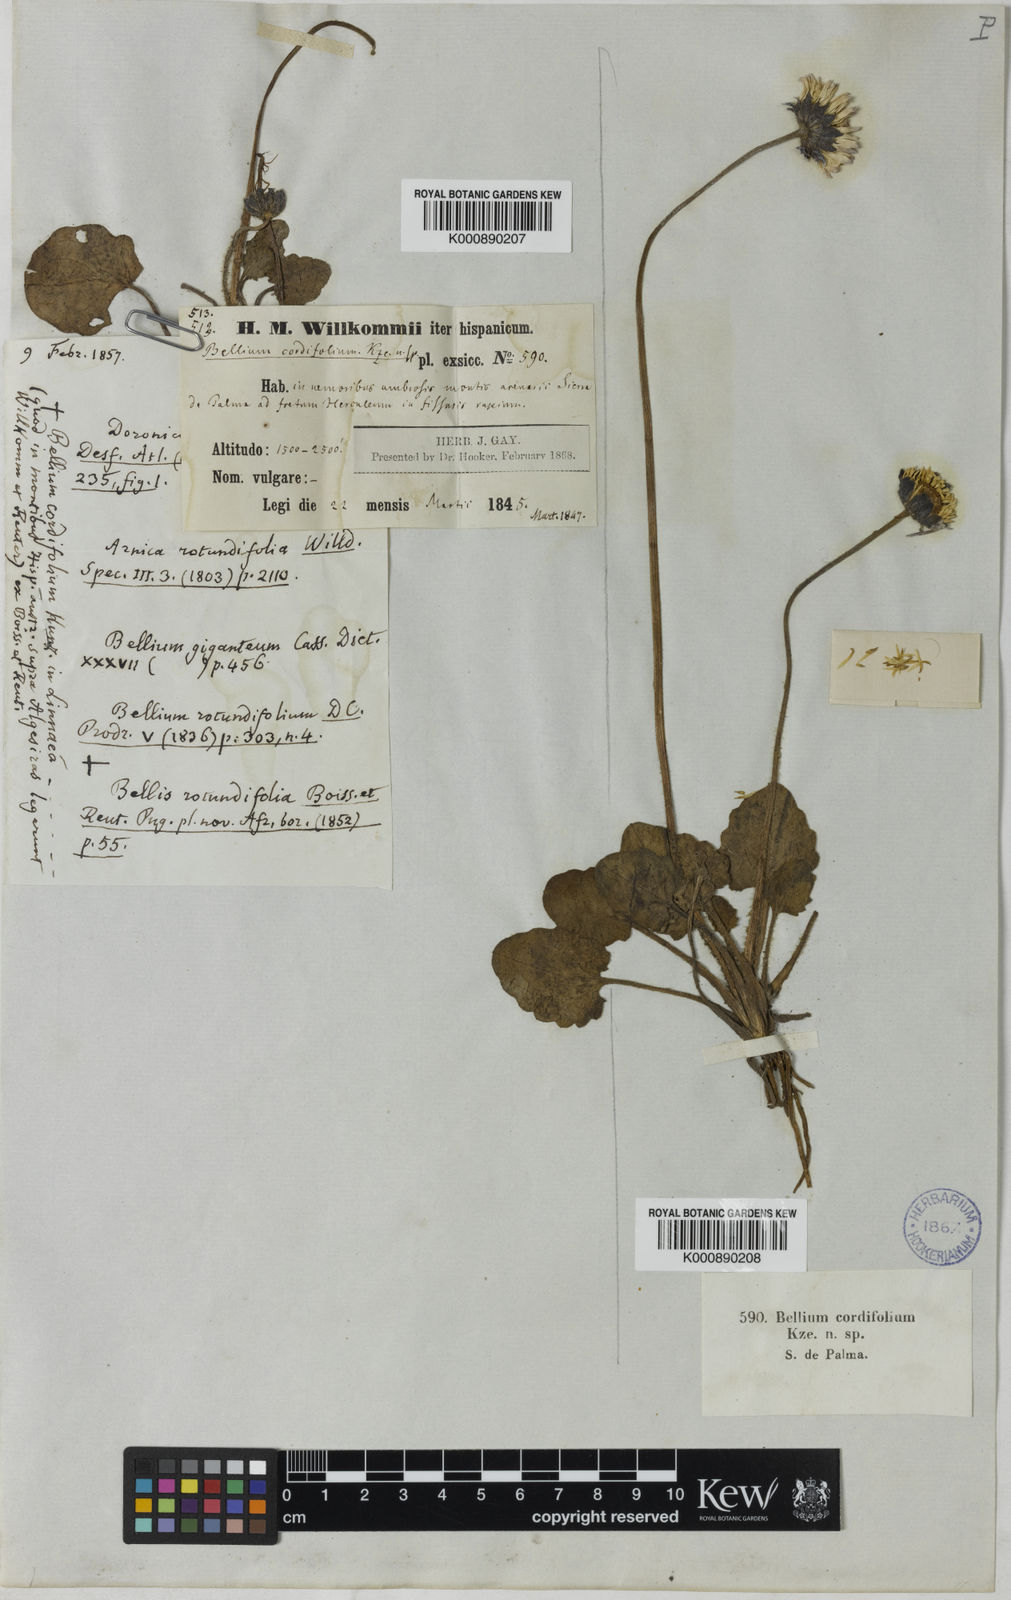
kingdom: Plantae
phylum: Tracheophyta
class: Magnoliopsida
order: Asterales
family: Asteraceae
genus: Bellis
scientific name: Bellis rotundifolia
